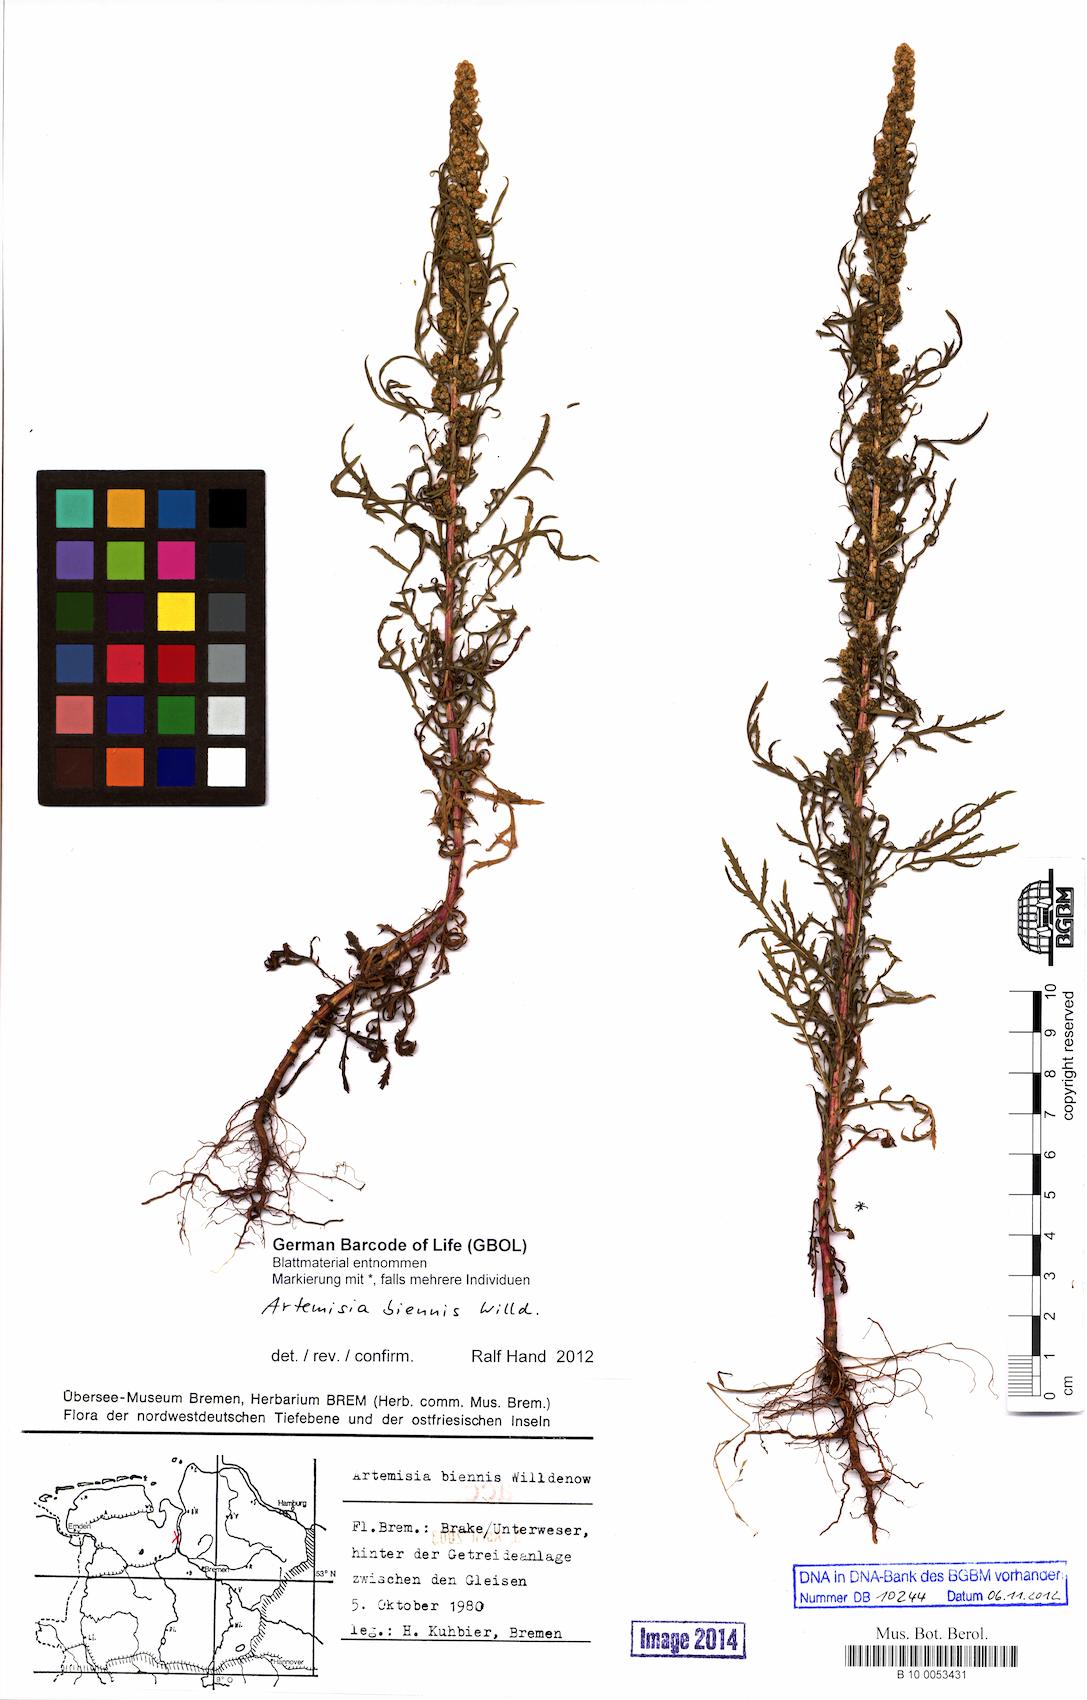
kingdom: Plantae
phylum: Tracheophyta
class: Magnoliopsida
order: Asterales
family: Asteraceae
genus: Artemisia
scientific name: Artemisia biennis
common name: Biennial wormwood
